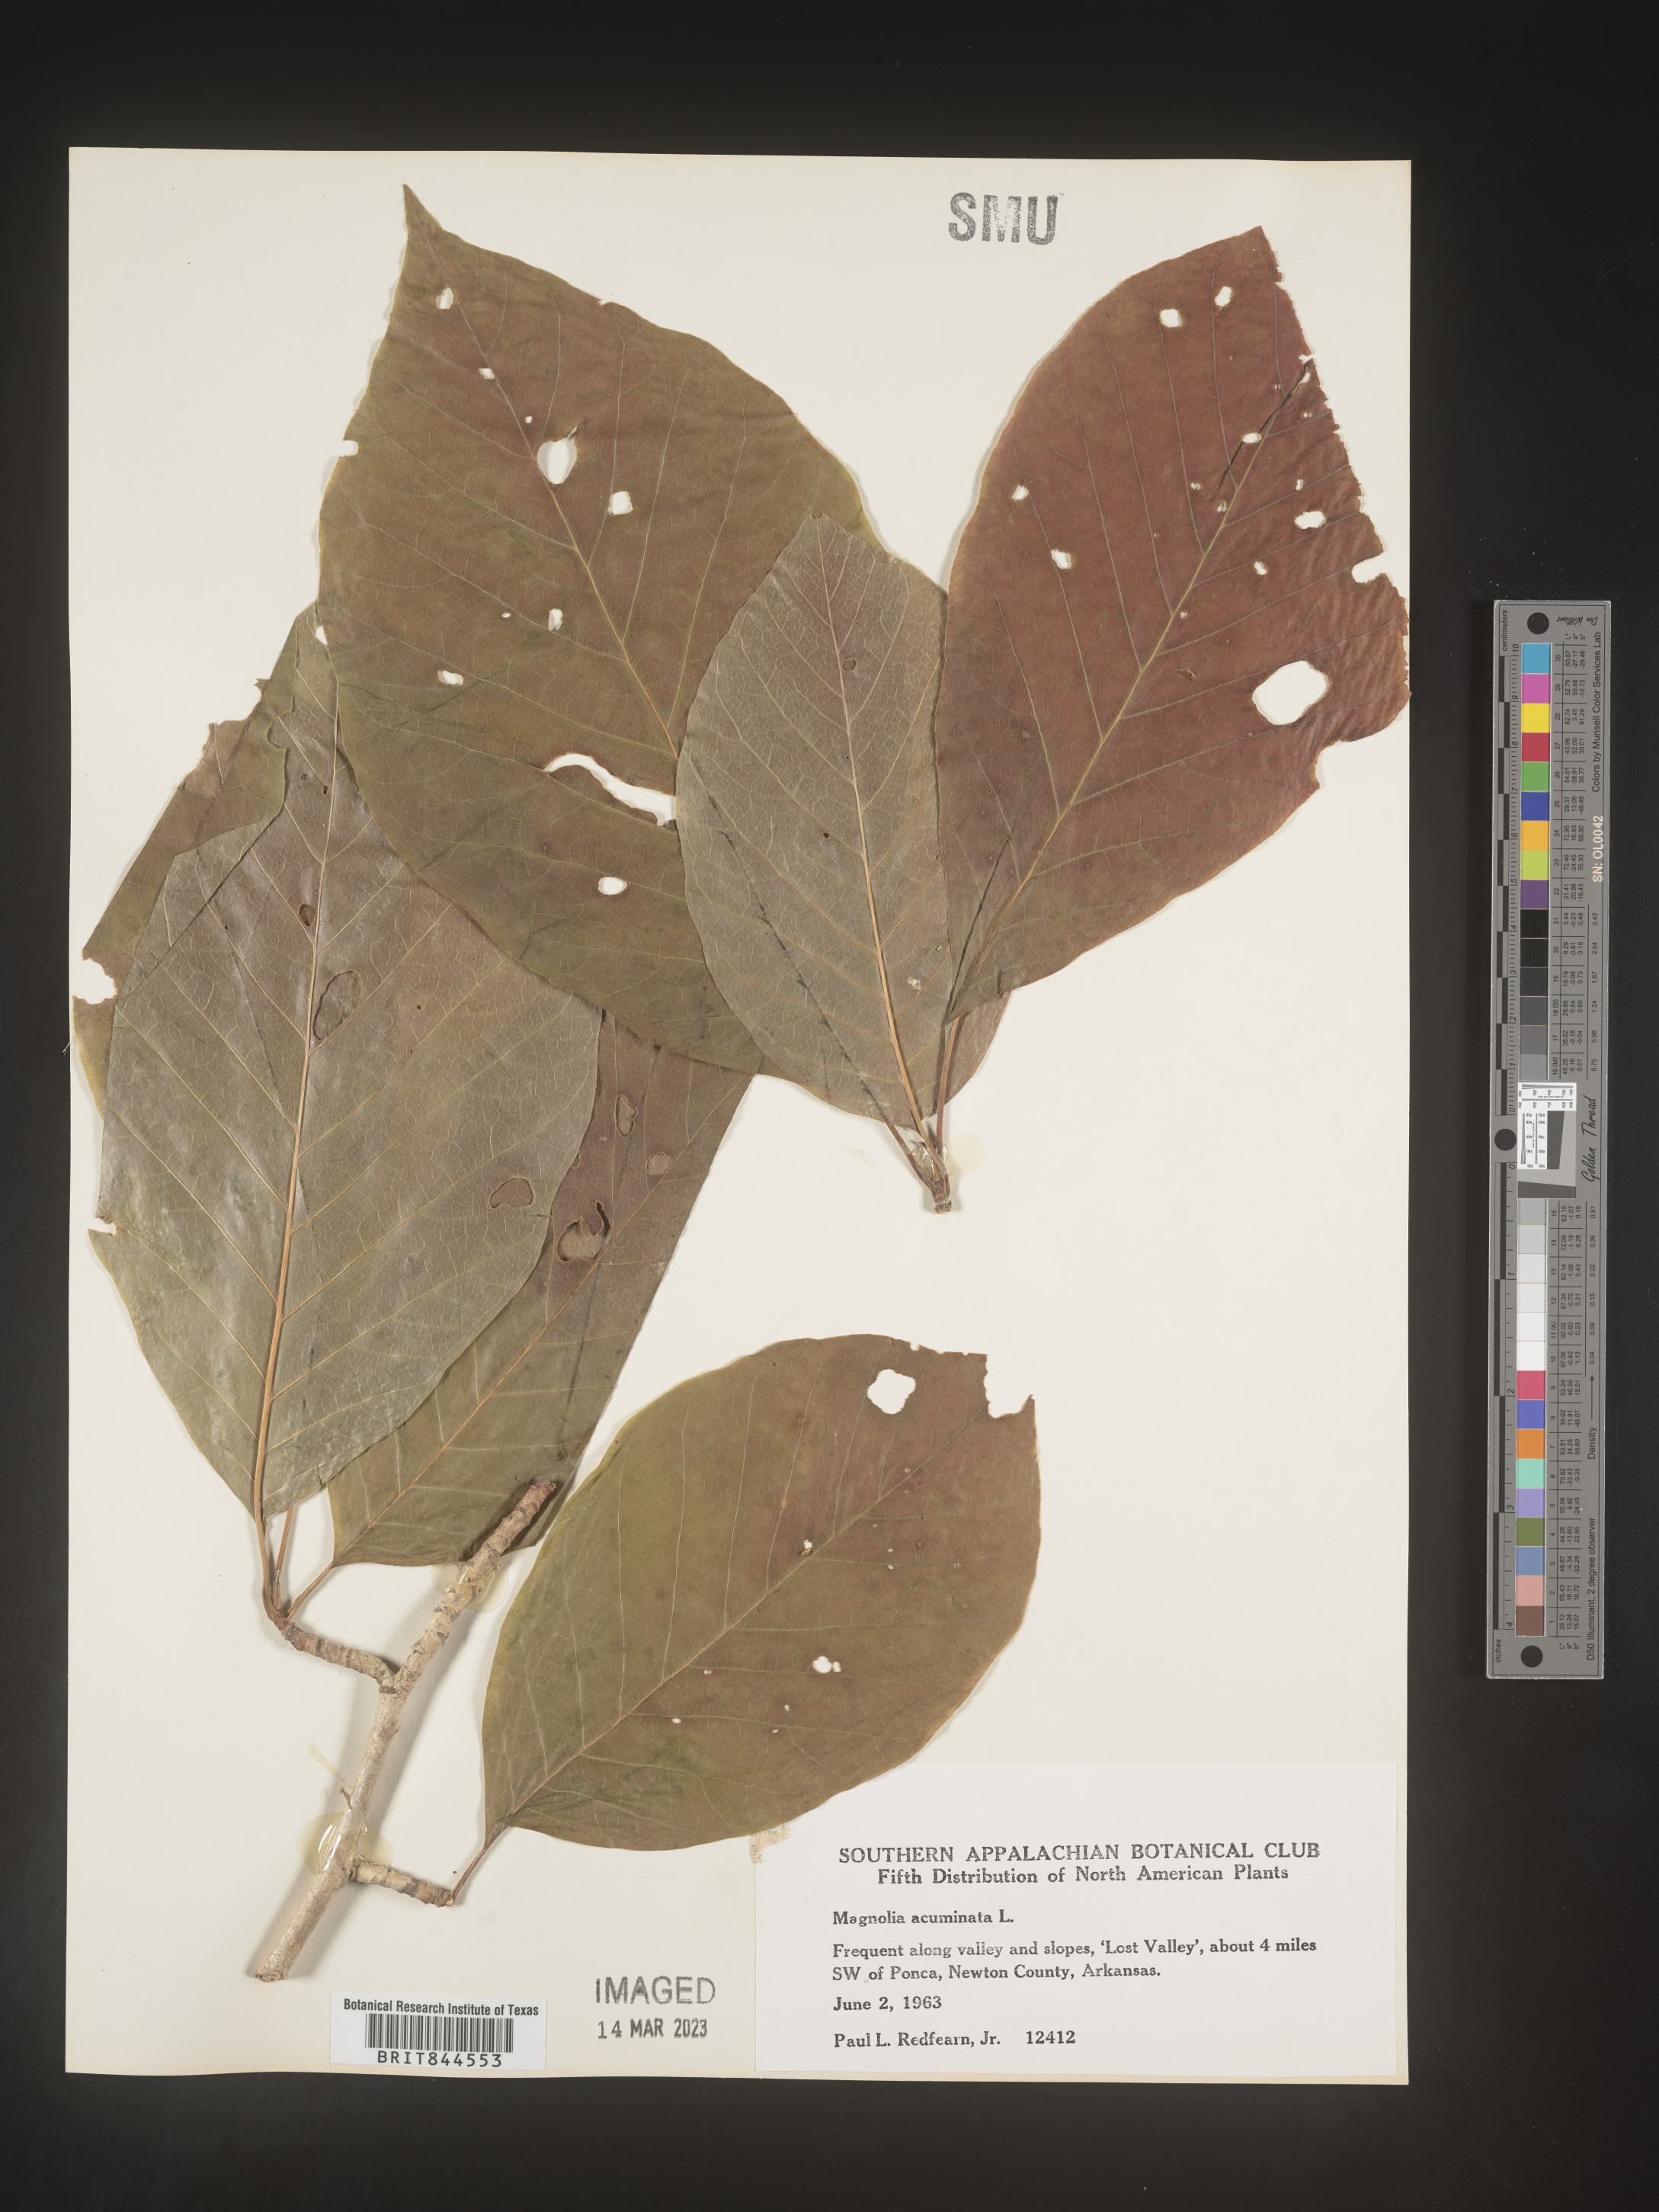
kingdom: Plantae
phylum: Tracheophyta
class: Magnoliopsida
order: Magnoliales
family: Magnoliaceae
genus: Magnolia
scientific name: Magnolia acuminata
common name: Cucumber magnolia
